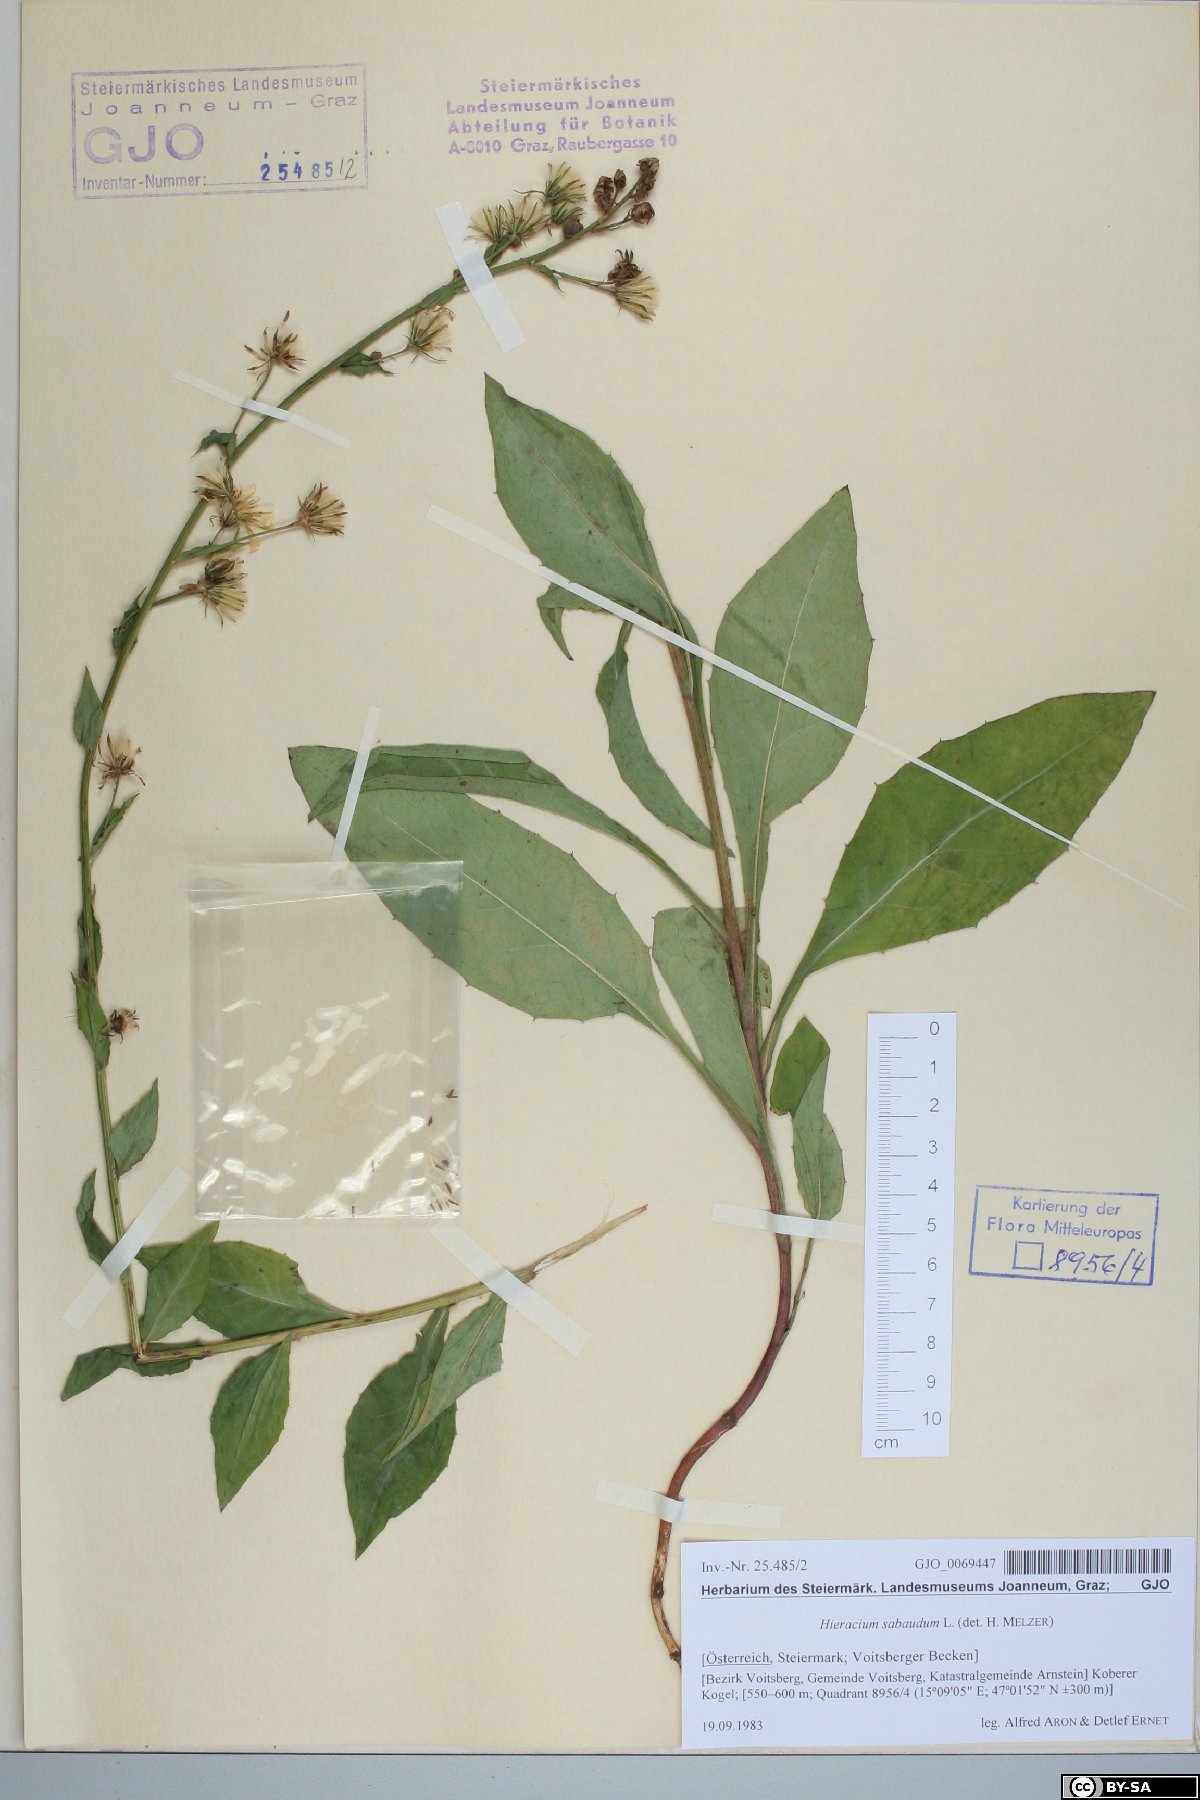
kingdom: Plantae
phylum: Tracheophyta
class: Magnoliopsida
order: Asterales
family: Asteraceae
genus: Hieracium
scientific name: Hieracium sabaudum
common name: New england hawkweed
